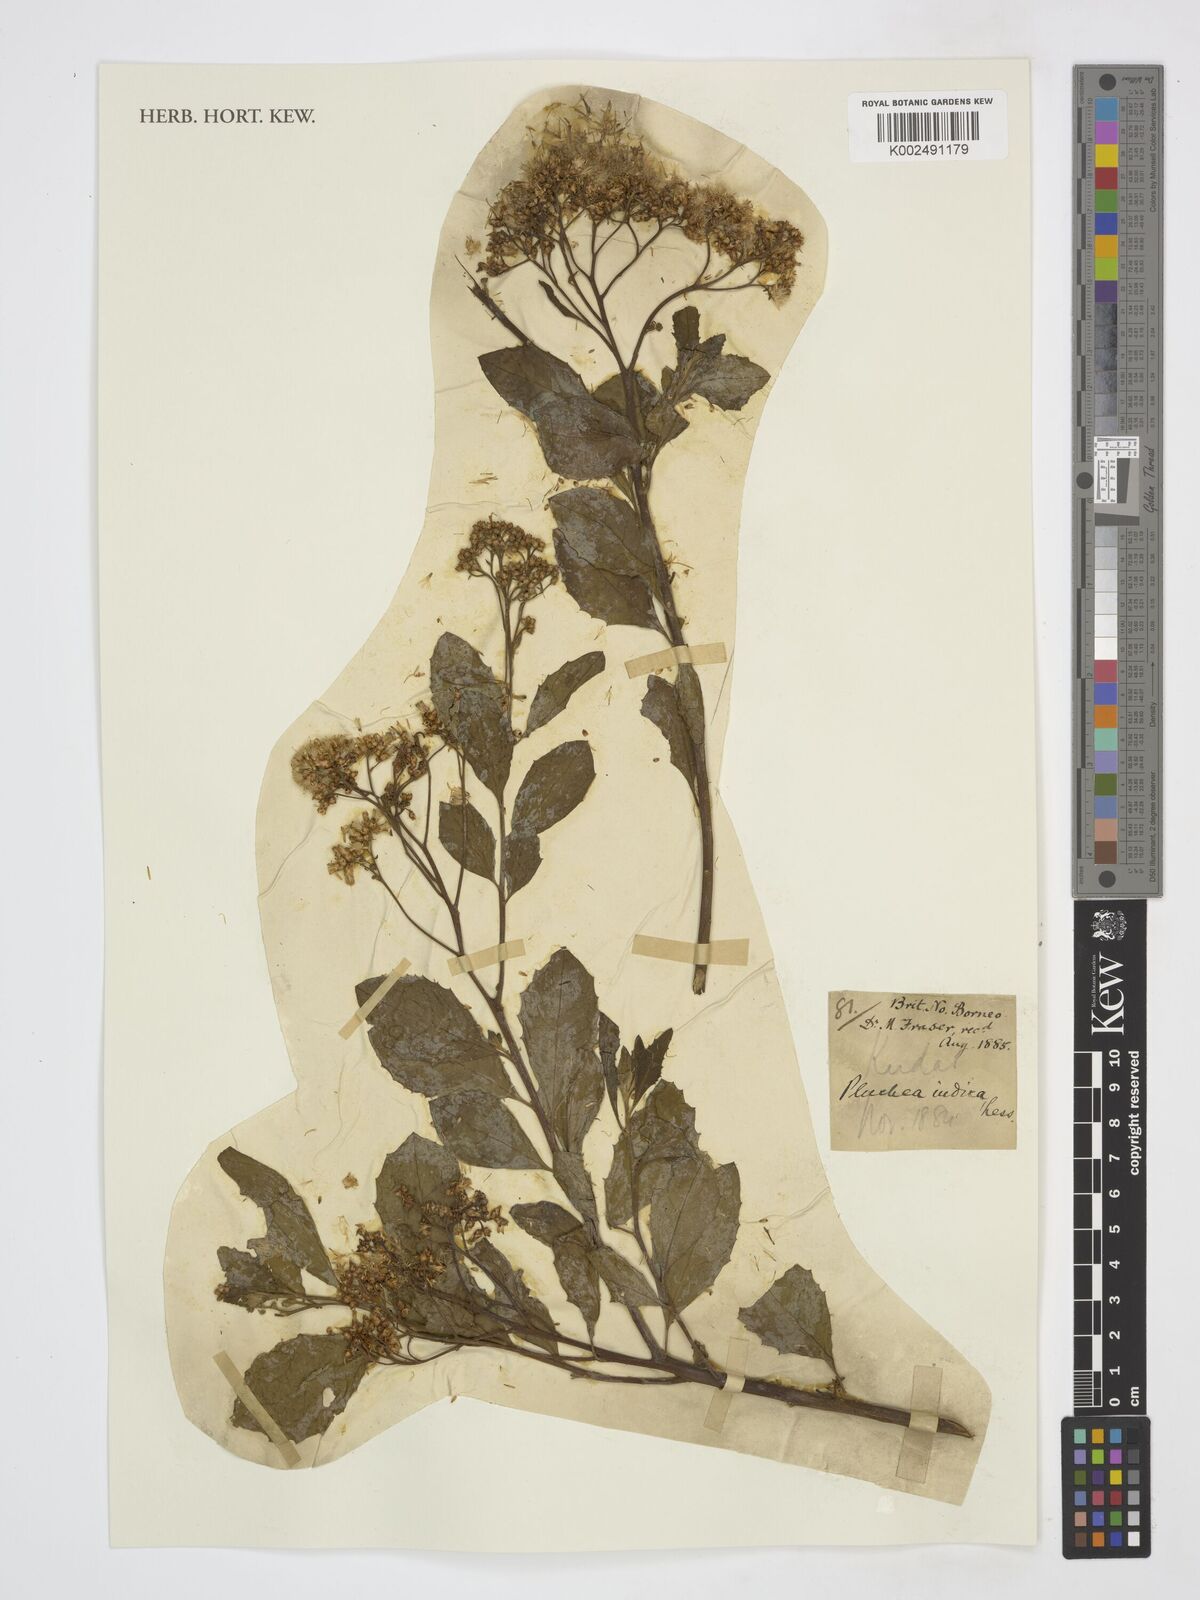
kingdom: Plantae
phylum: Tracheophyta
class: Magnoliopsida
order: Asterales
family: Asteraceae
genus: Pluchea
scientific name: Pluchea indica
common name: Indian fleabane
